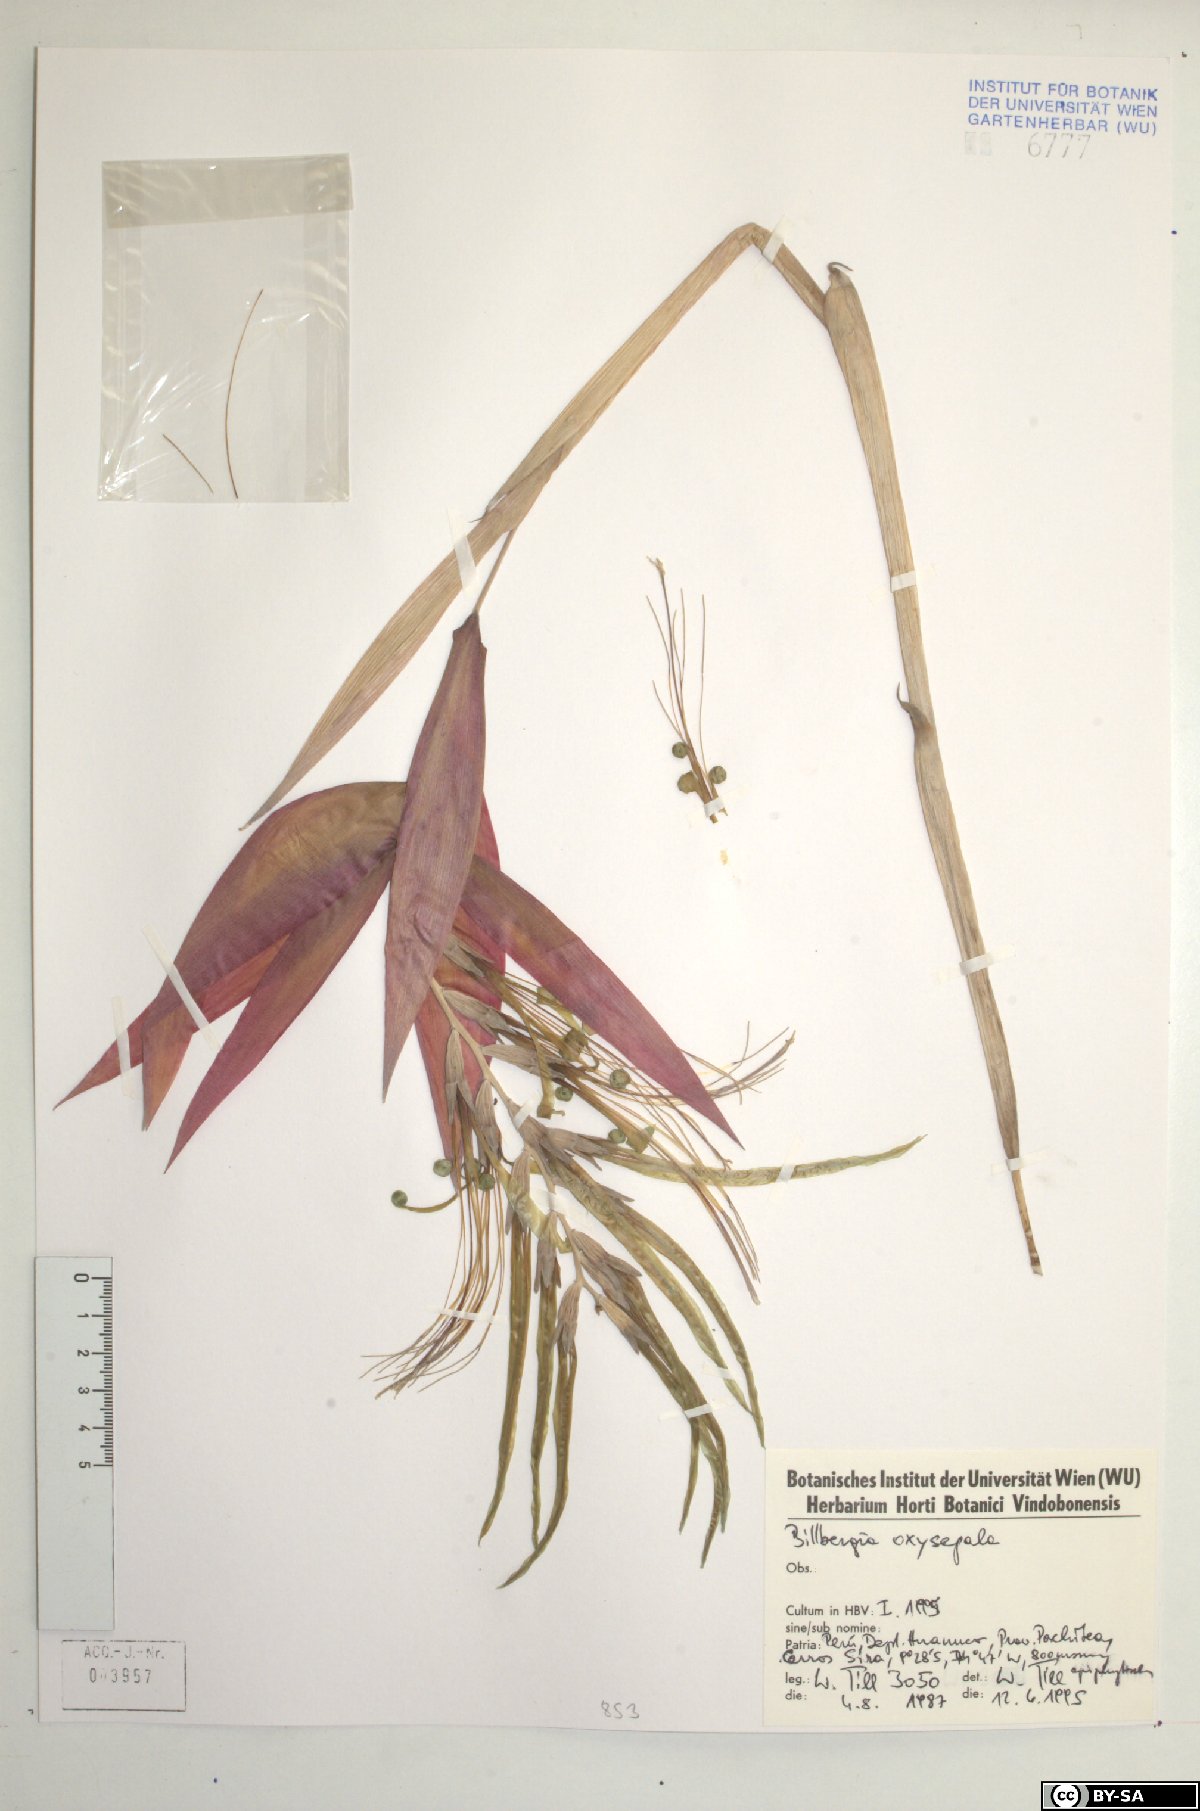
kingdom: Plantae
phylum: Tracheophyta
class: Liliopsida
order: Poales
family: Bromeliaceae
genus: Billbergia
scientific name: Billbergia oxysepala
